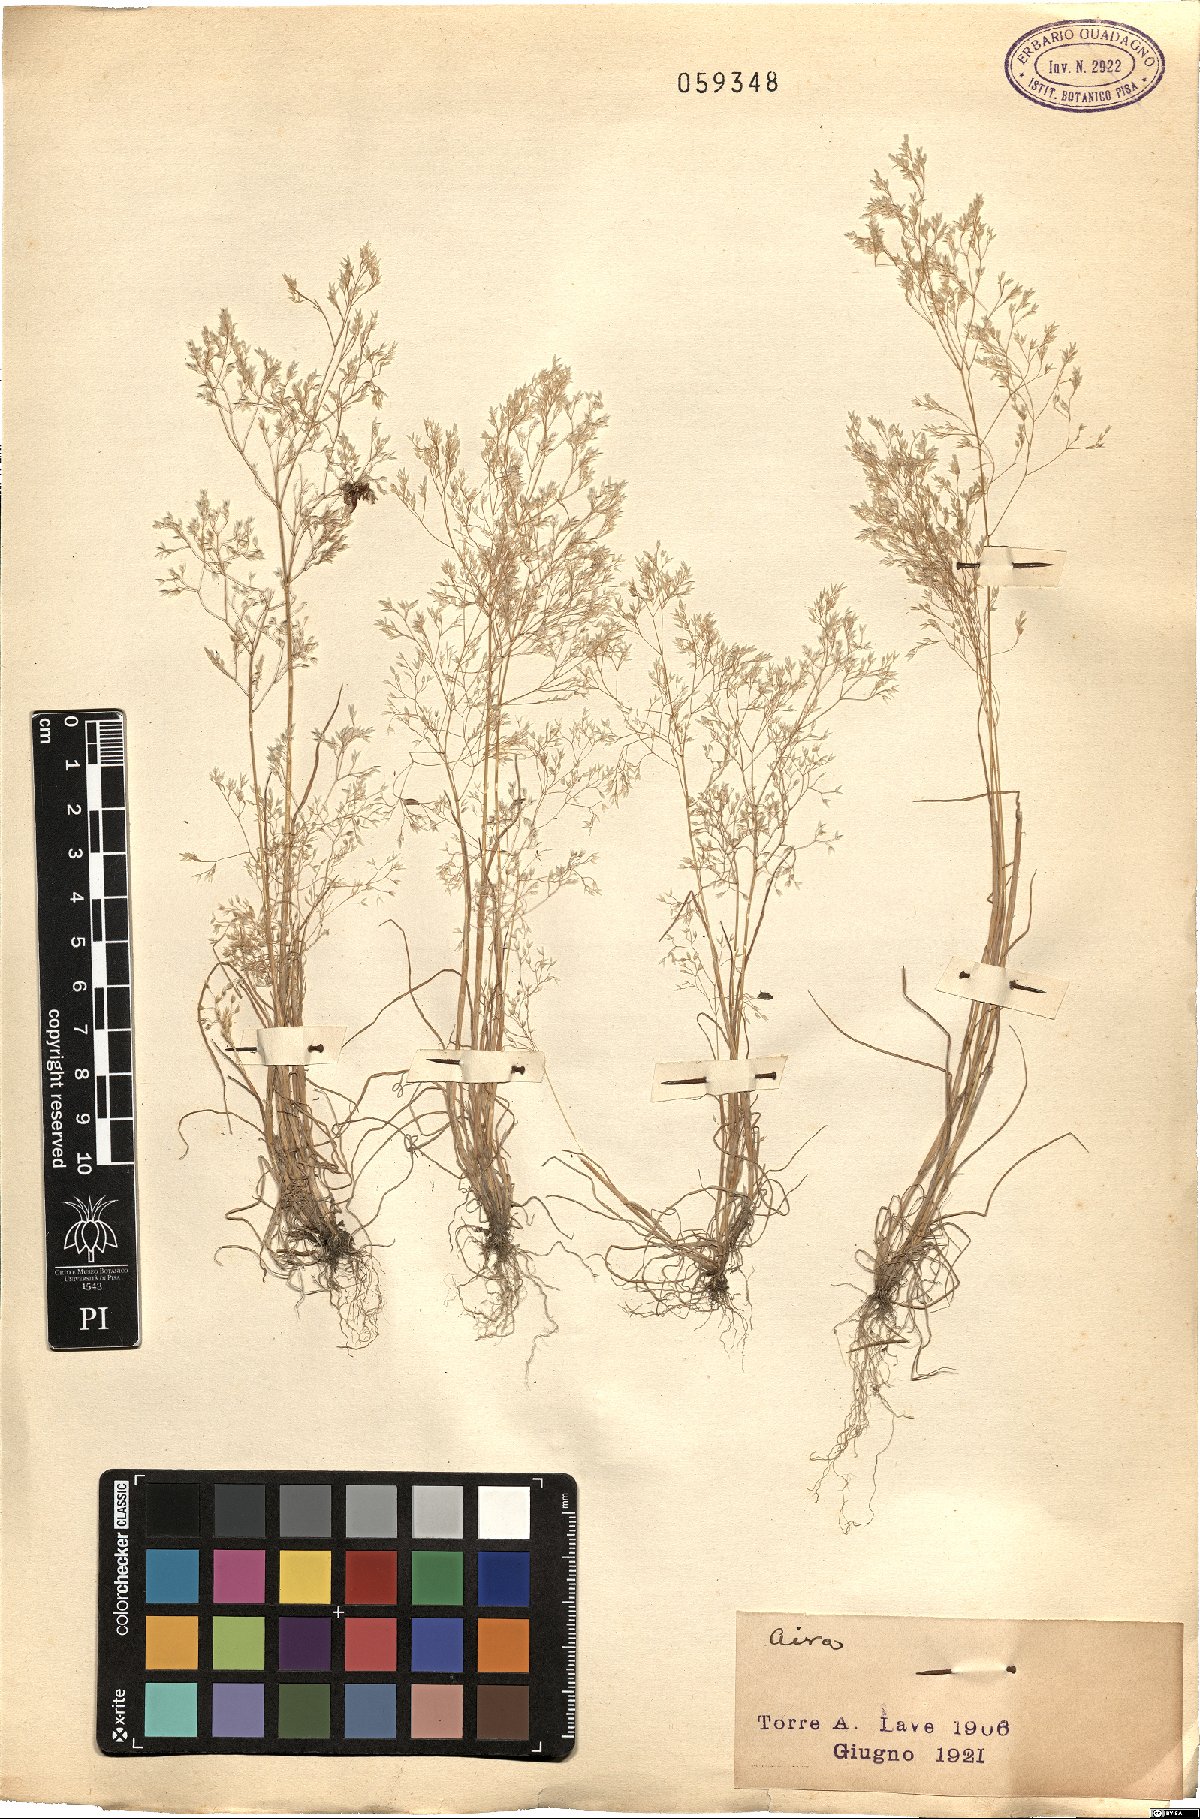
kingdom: Plantae
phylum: Tracheophyta
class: Liliopsida
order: Poales
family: Poaceae
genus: Aira
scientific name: Aira
